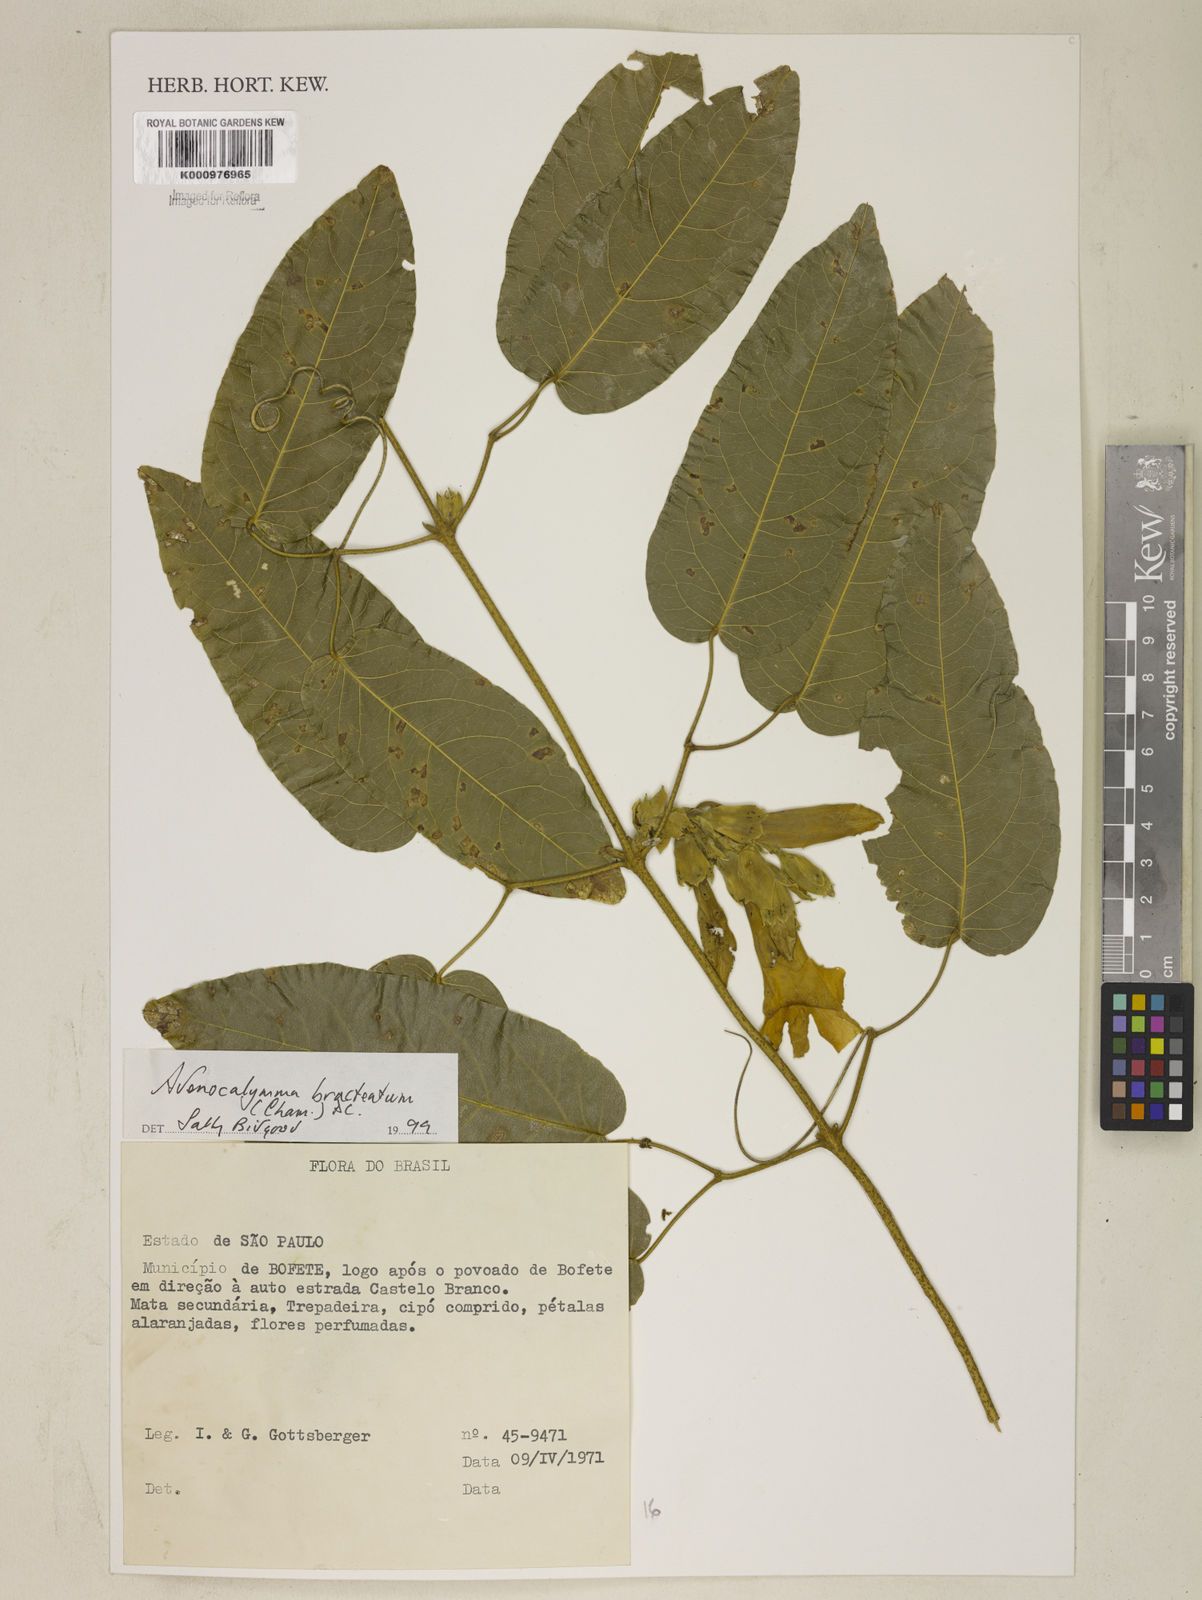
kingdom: Plantae
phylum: Tracheophyta
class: Magnoliopsida
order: Lamiales
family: Bignoniaceae
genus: Adenocalymma
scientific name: Adenocalymma bracteatum
